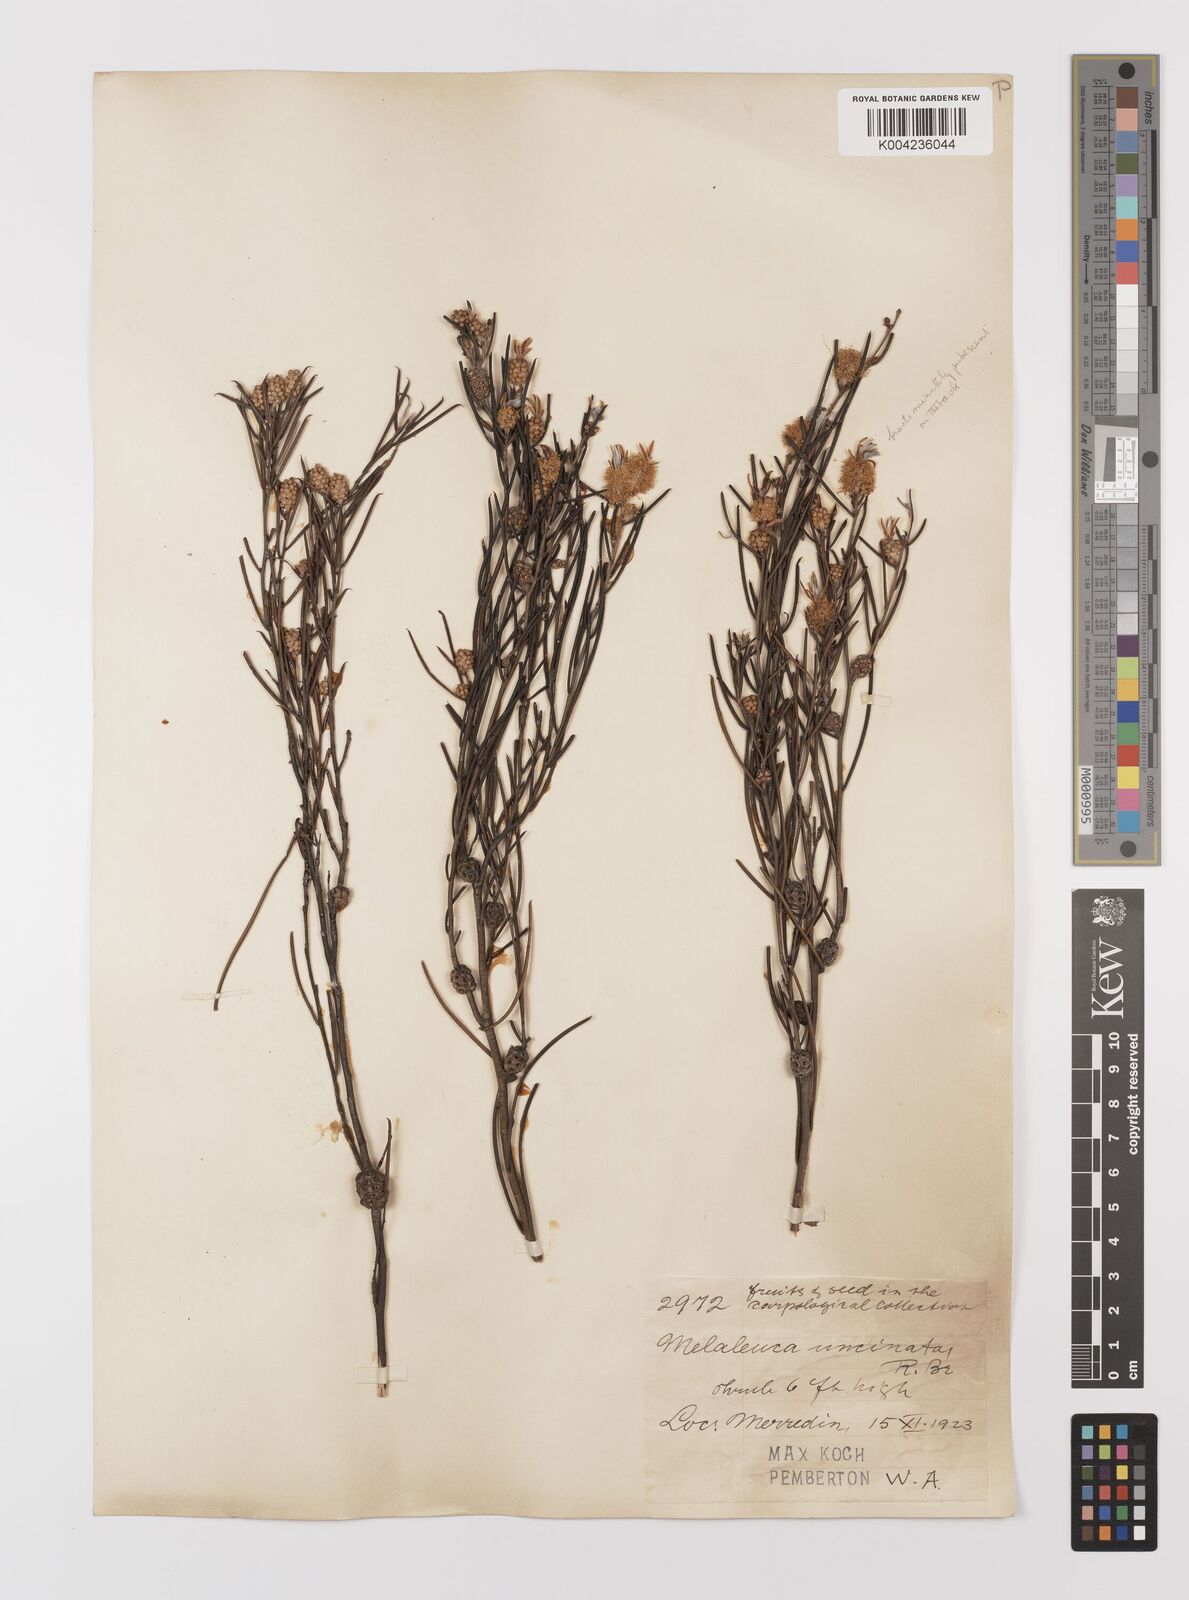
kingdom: Plantae
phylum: Tracheophyta
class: Magnoliopsida
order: Myrtales
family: Myrtaceae
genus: Melaleuca
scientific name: Melaleuca uncinata
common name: Broom honey myrtle
